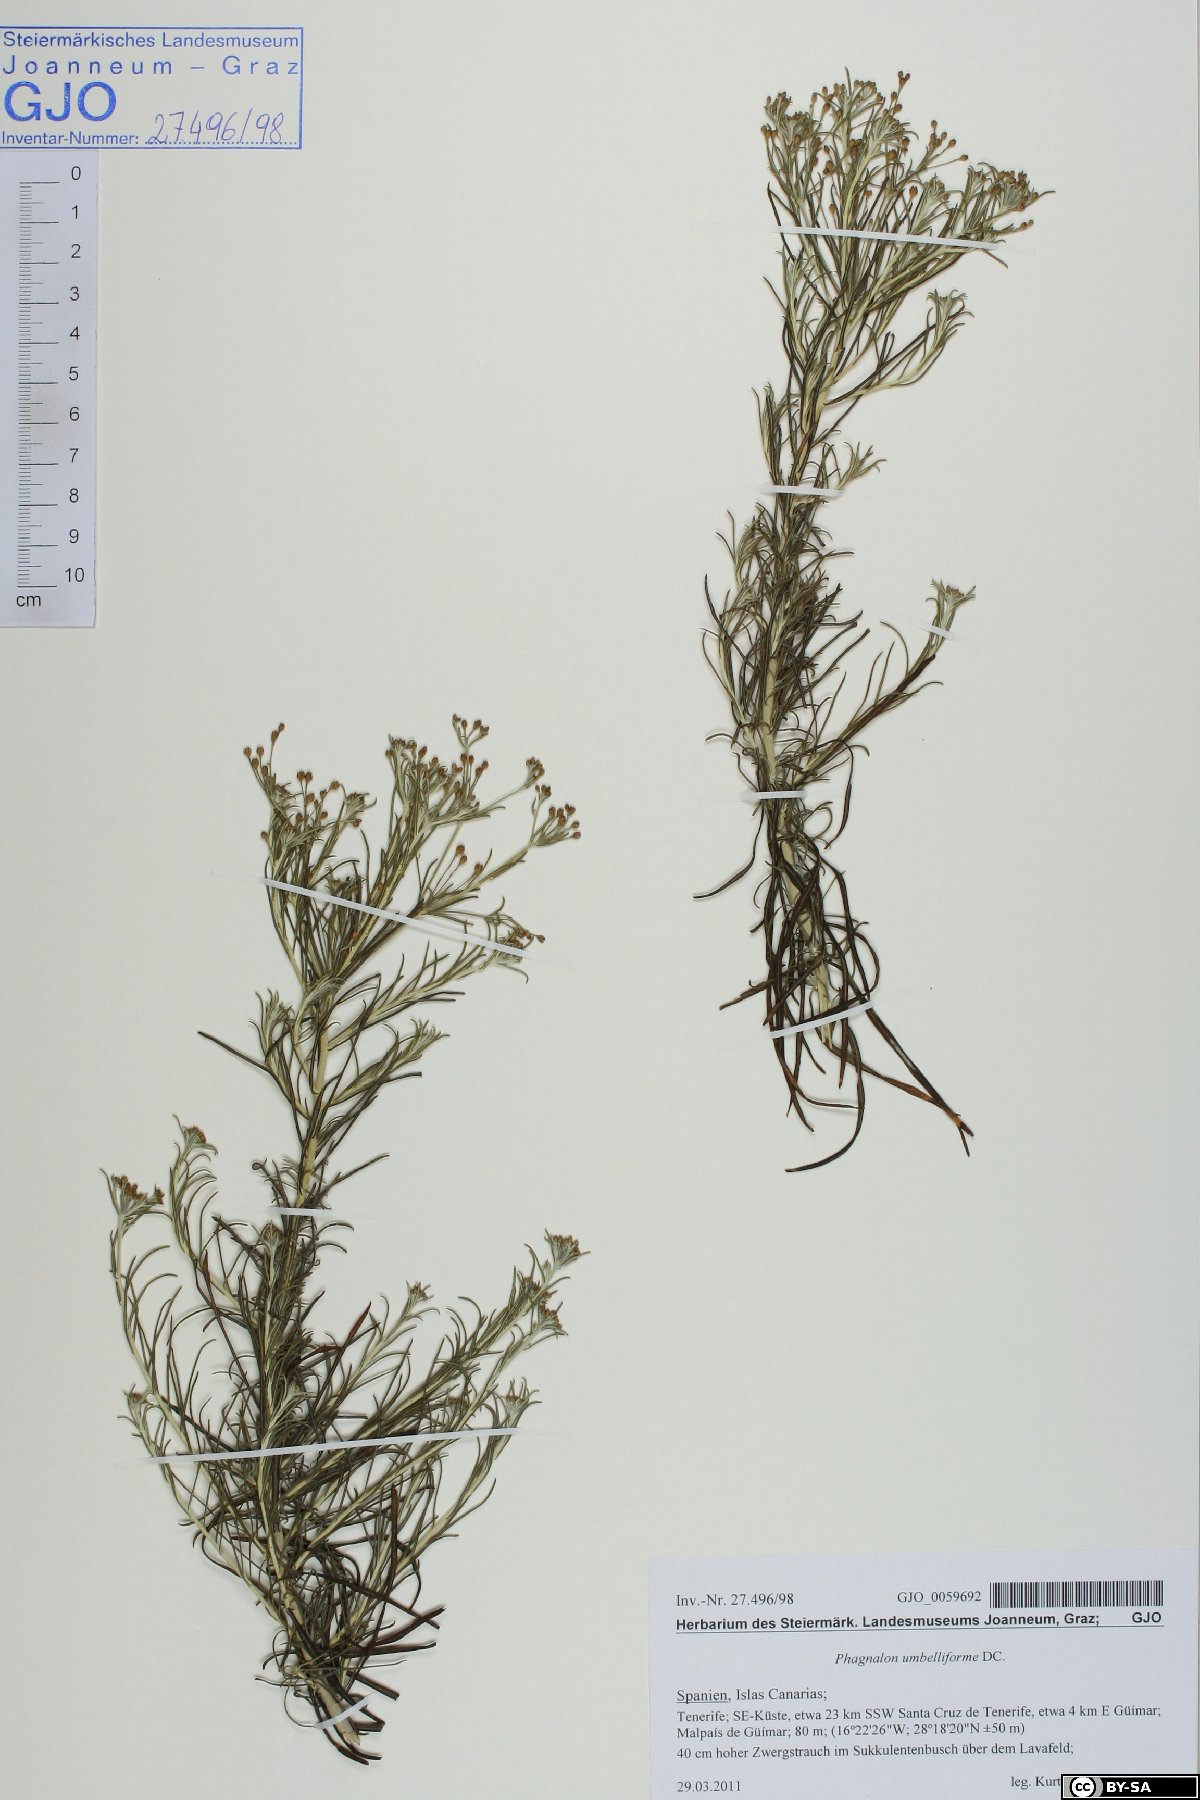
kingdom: Plantae
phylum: Tracheophyta
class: Magnoliopsida
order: Asterales
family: Asteraceae
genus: Phagnalon
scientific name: Phagnalon umbelliforme
